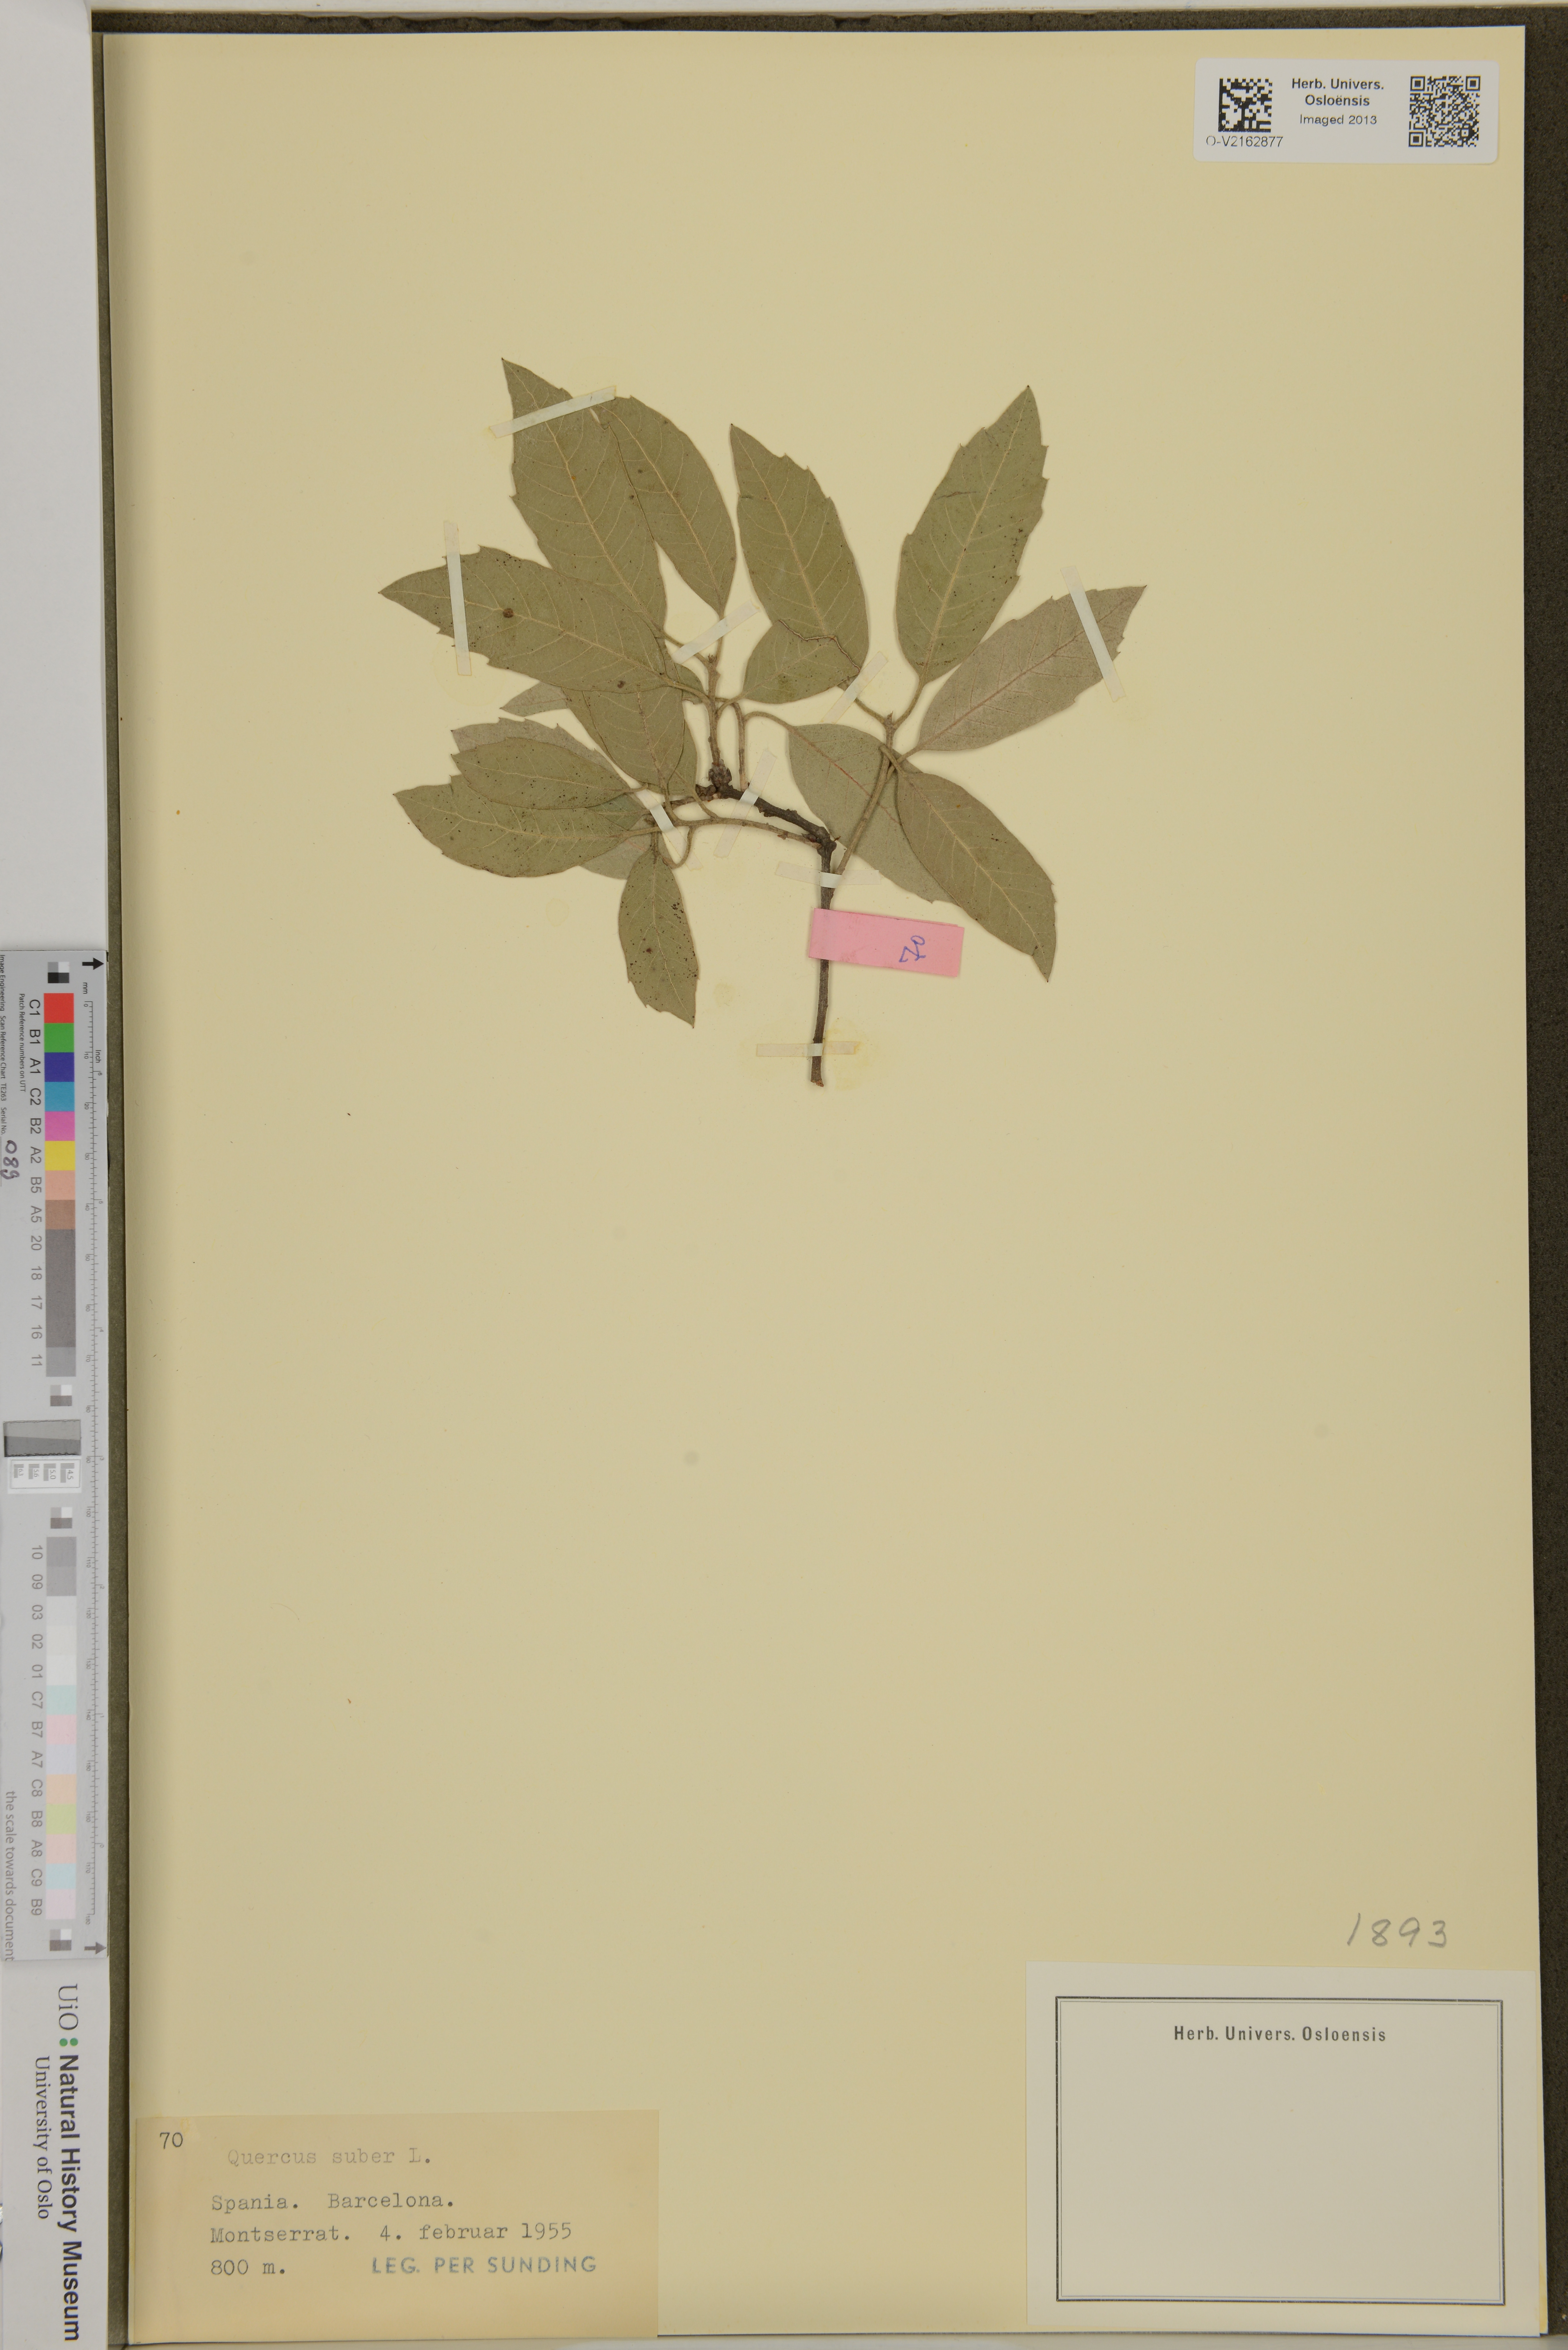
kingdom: Plantae
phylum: Tracheophyta
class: Magnoliopsida
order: Fagales
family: Fagaceae
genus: Quercus
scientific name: Quercus suber
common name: Cork oak
